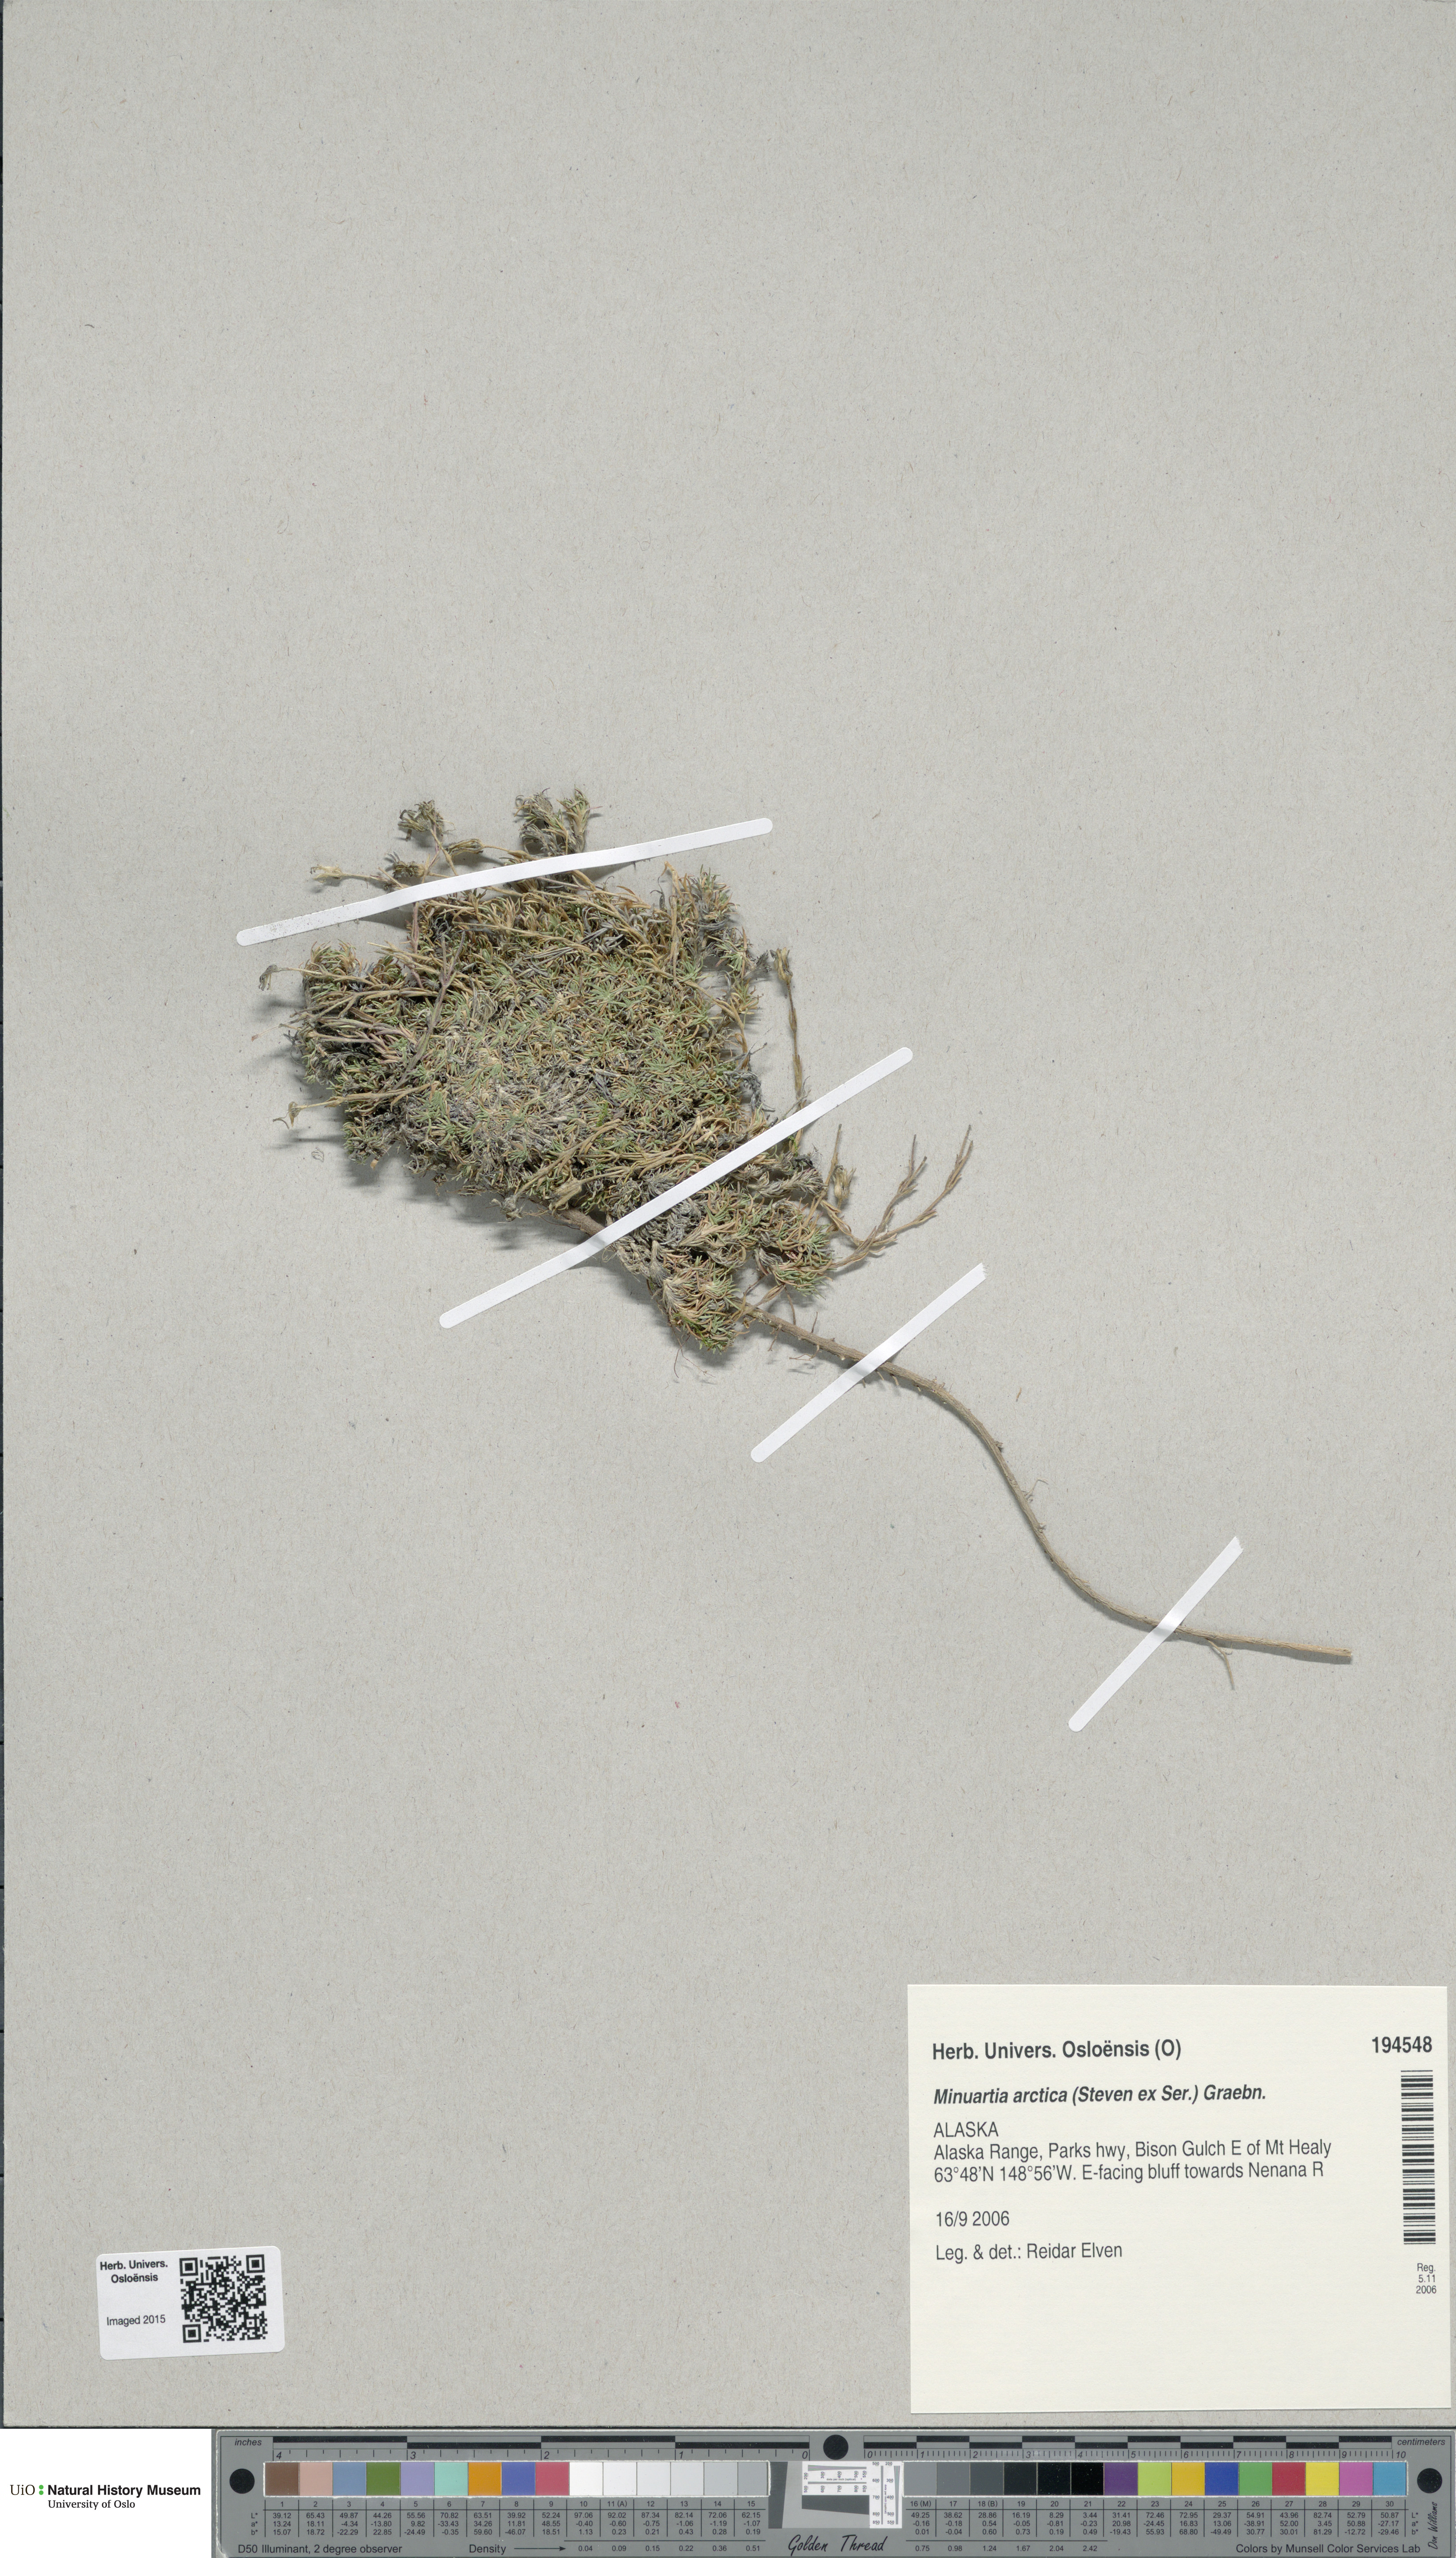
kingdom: Plantae
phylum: Tracheophyta
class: Magnoliopsida
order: Caryophyllales
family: Caryophyllaceae
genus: Cherleria
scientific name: Cherleria arctica
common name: Arctic sandwort
